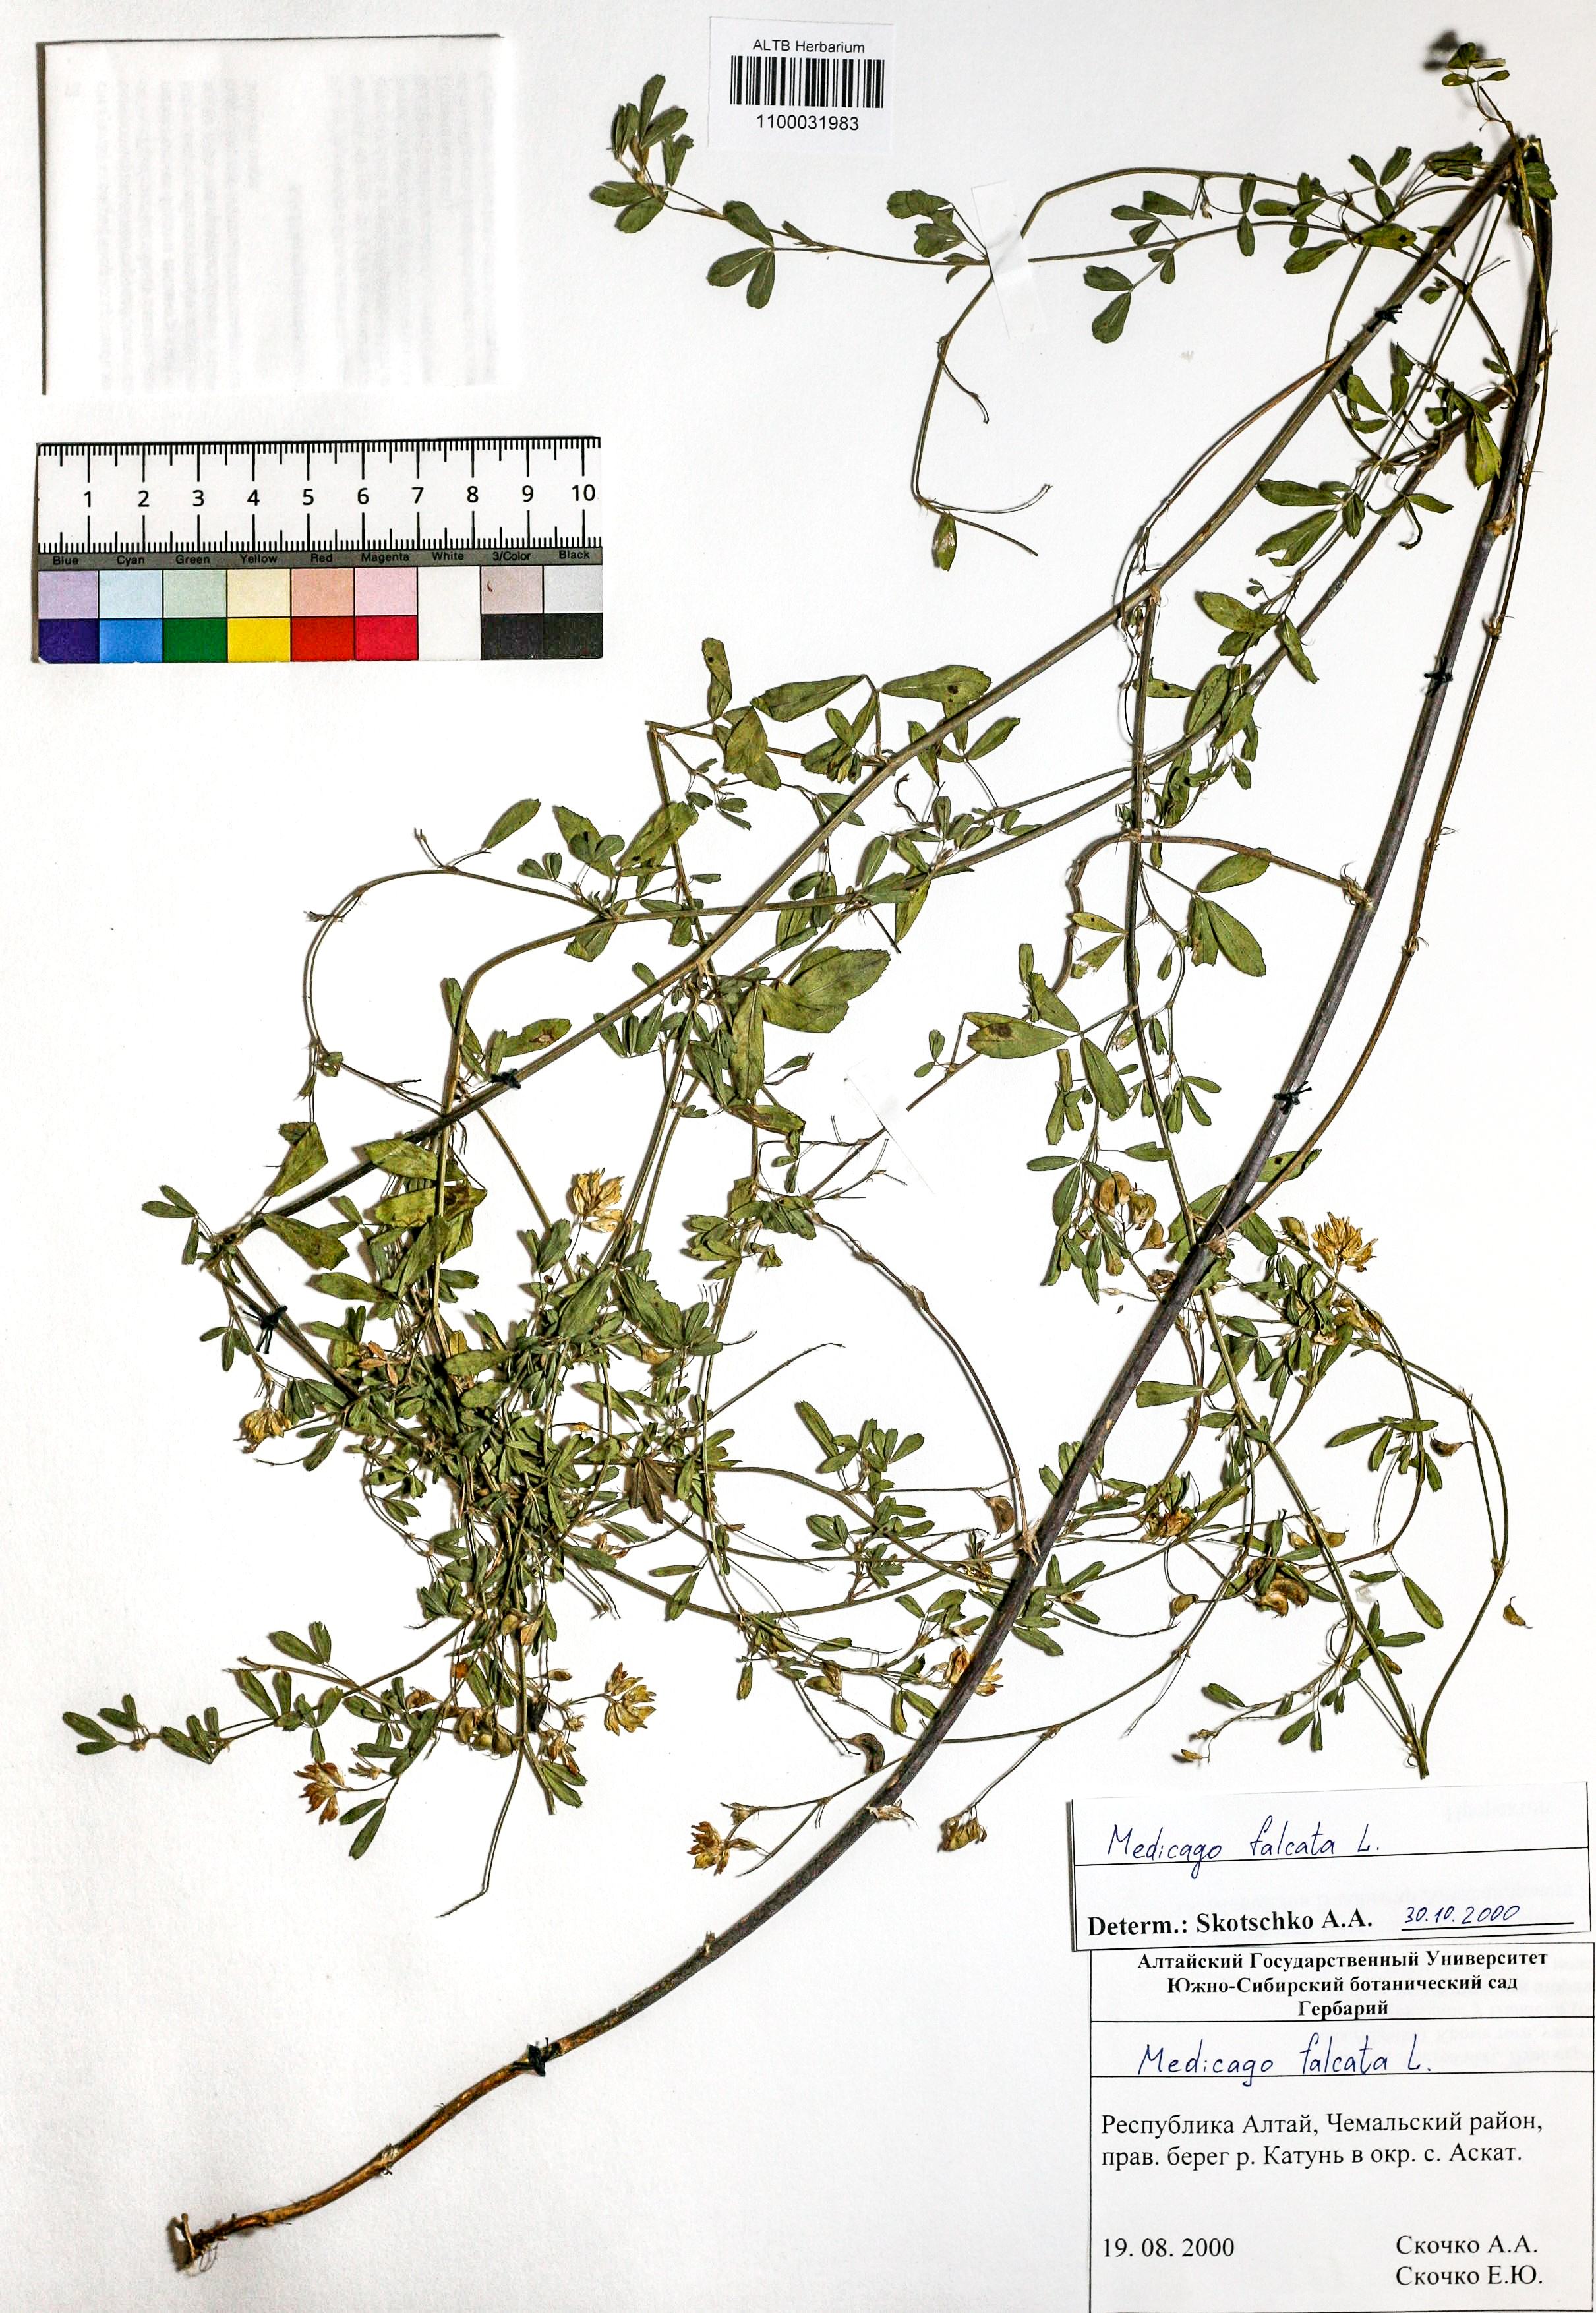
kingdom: Plantae
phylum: Tracheophyta
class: Magnoliopsida
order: Fabales
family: Fabaceae
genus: Medicago
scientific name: Medicago falcata
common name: Sickle medick
